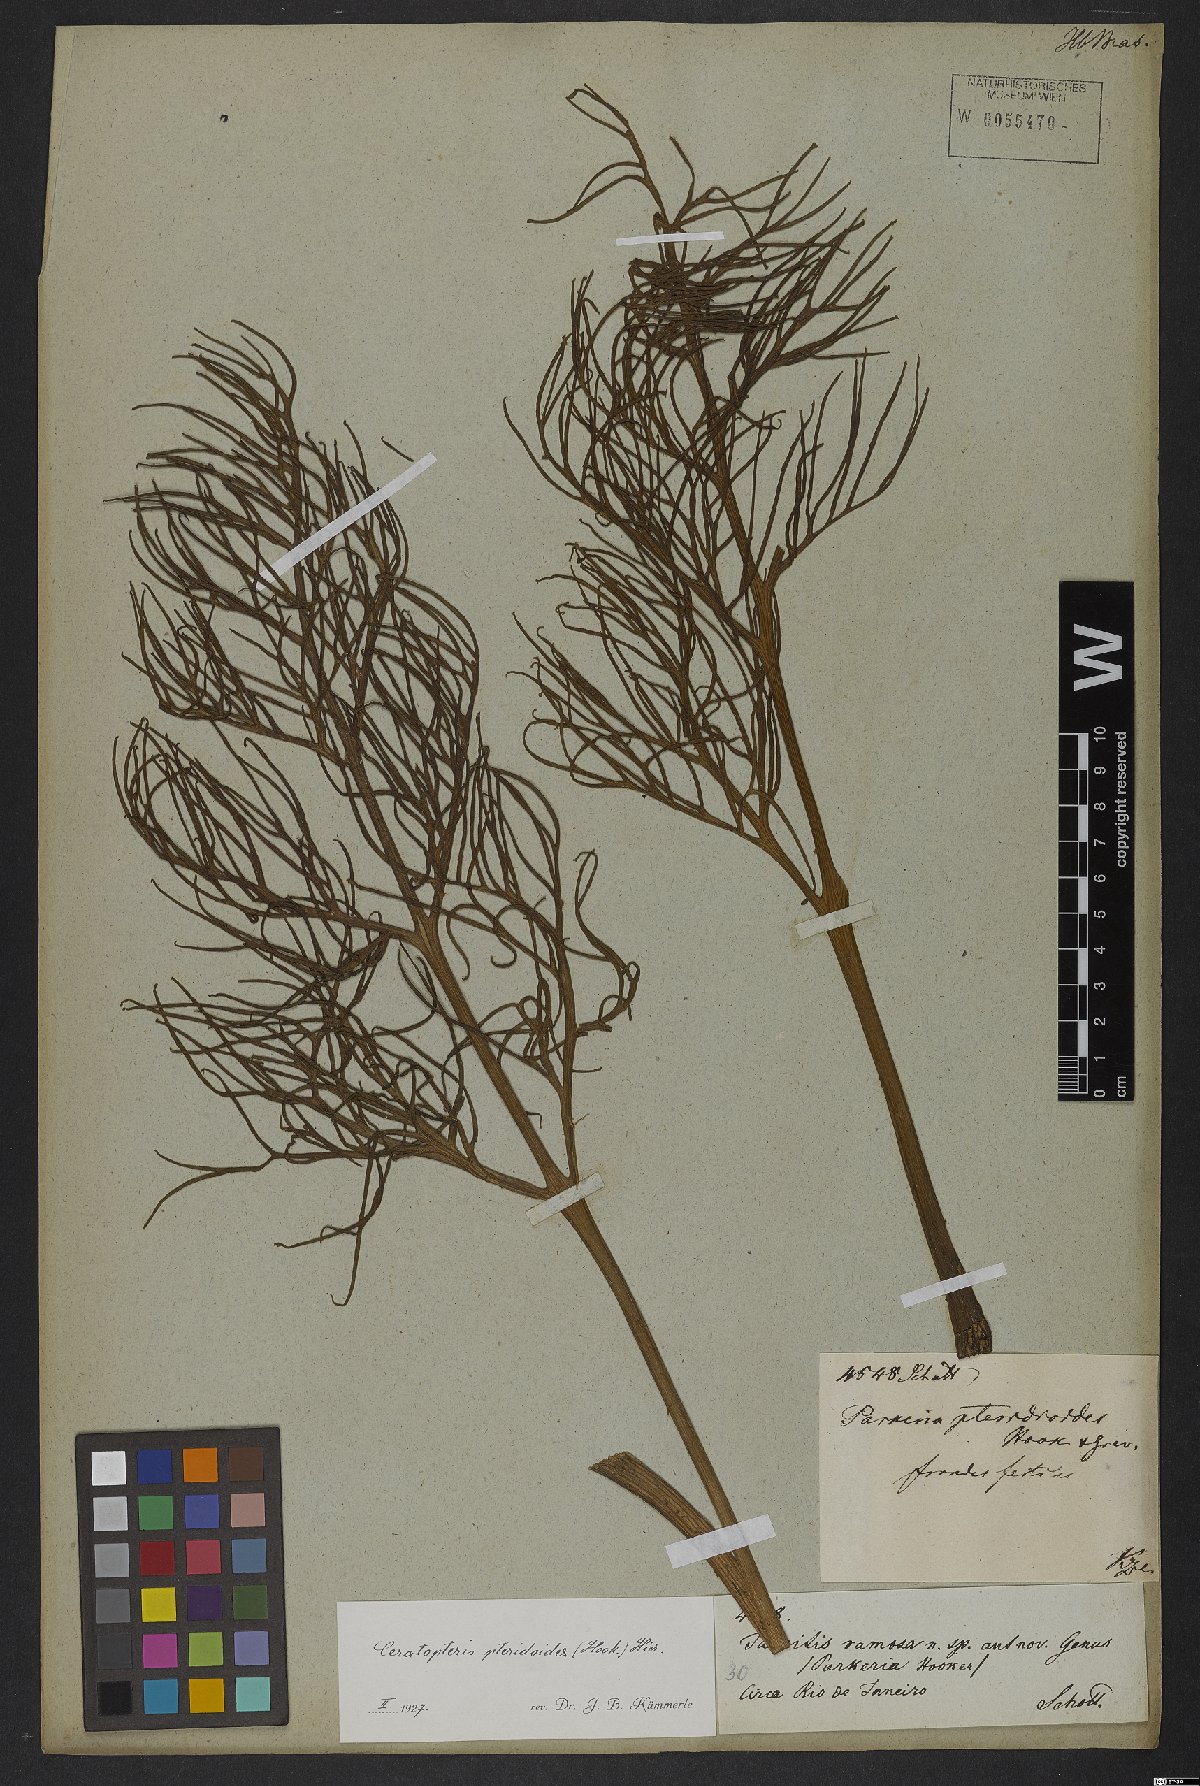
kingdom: Plantae
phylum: Tracheophyta
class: Polypodiopsida
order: Polypodiales
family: Pteridaceae
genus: Ceratopteris
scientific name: Ceratopteris pteridoides
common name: Floating fern
